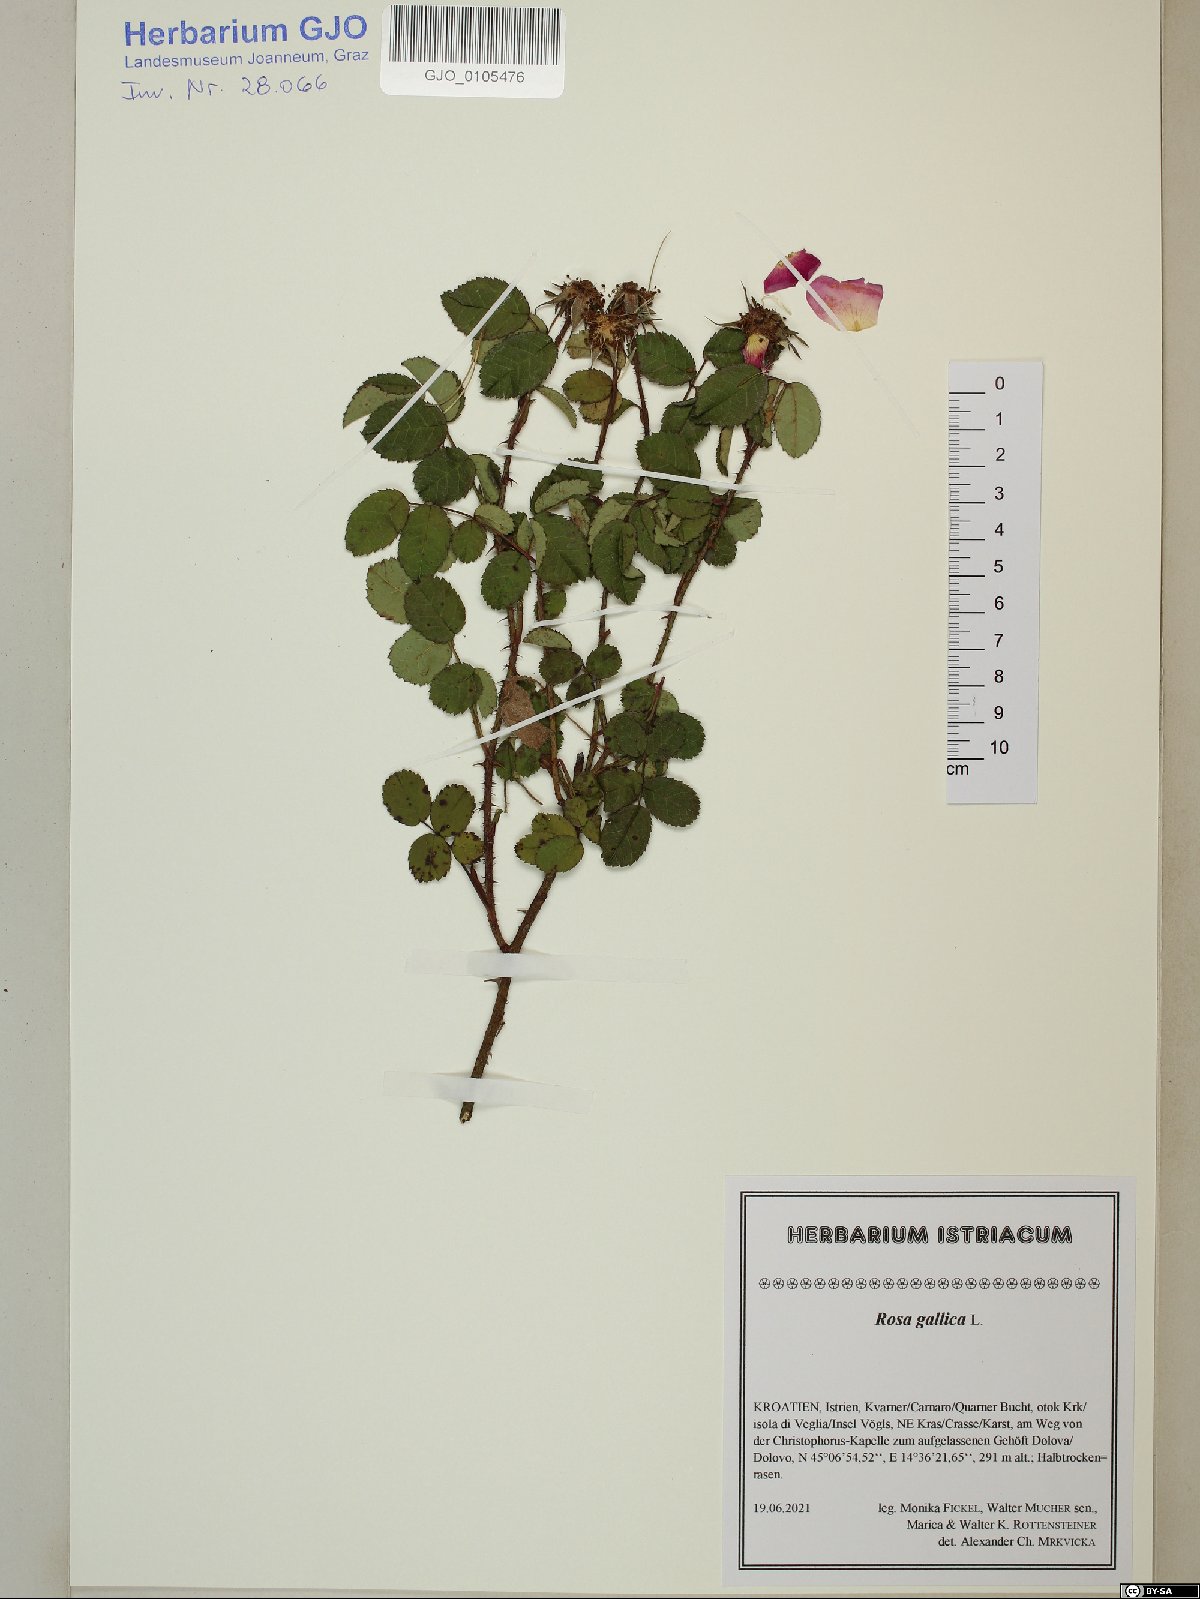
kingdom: Plantae
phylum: Tracheophyta
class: Magnoliopsida
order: Rosales
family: Rosaceae
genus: Rosa
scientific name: Rosa gallica
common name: French rose
